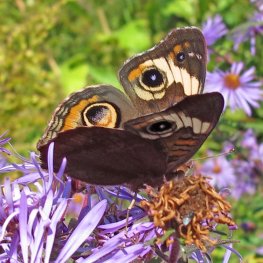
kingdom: Animalia
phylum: Arthropoda
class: Insecta
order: Lepidoptera
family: Nymphalidae
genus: Junonia
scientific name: Junonia coenia
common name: Common Buckeye
